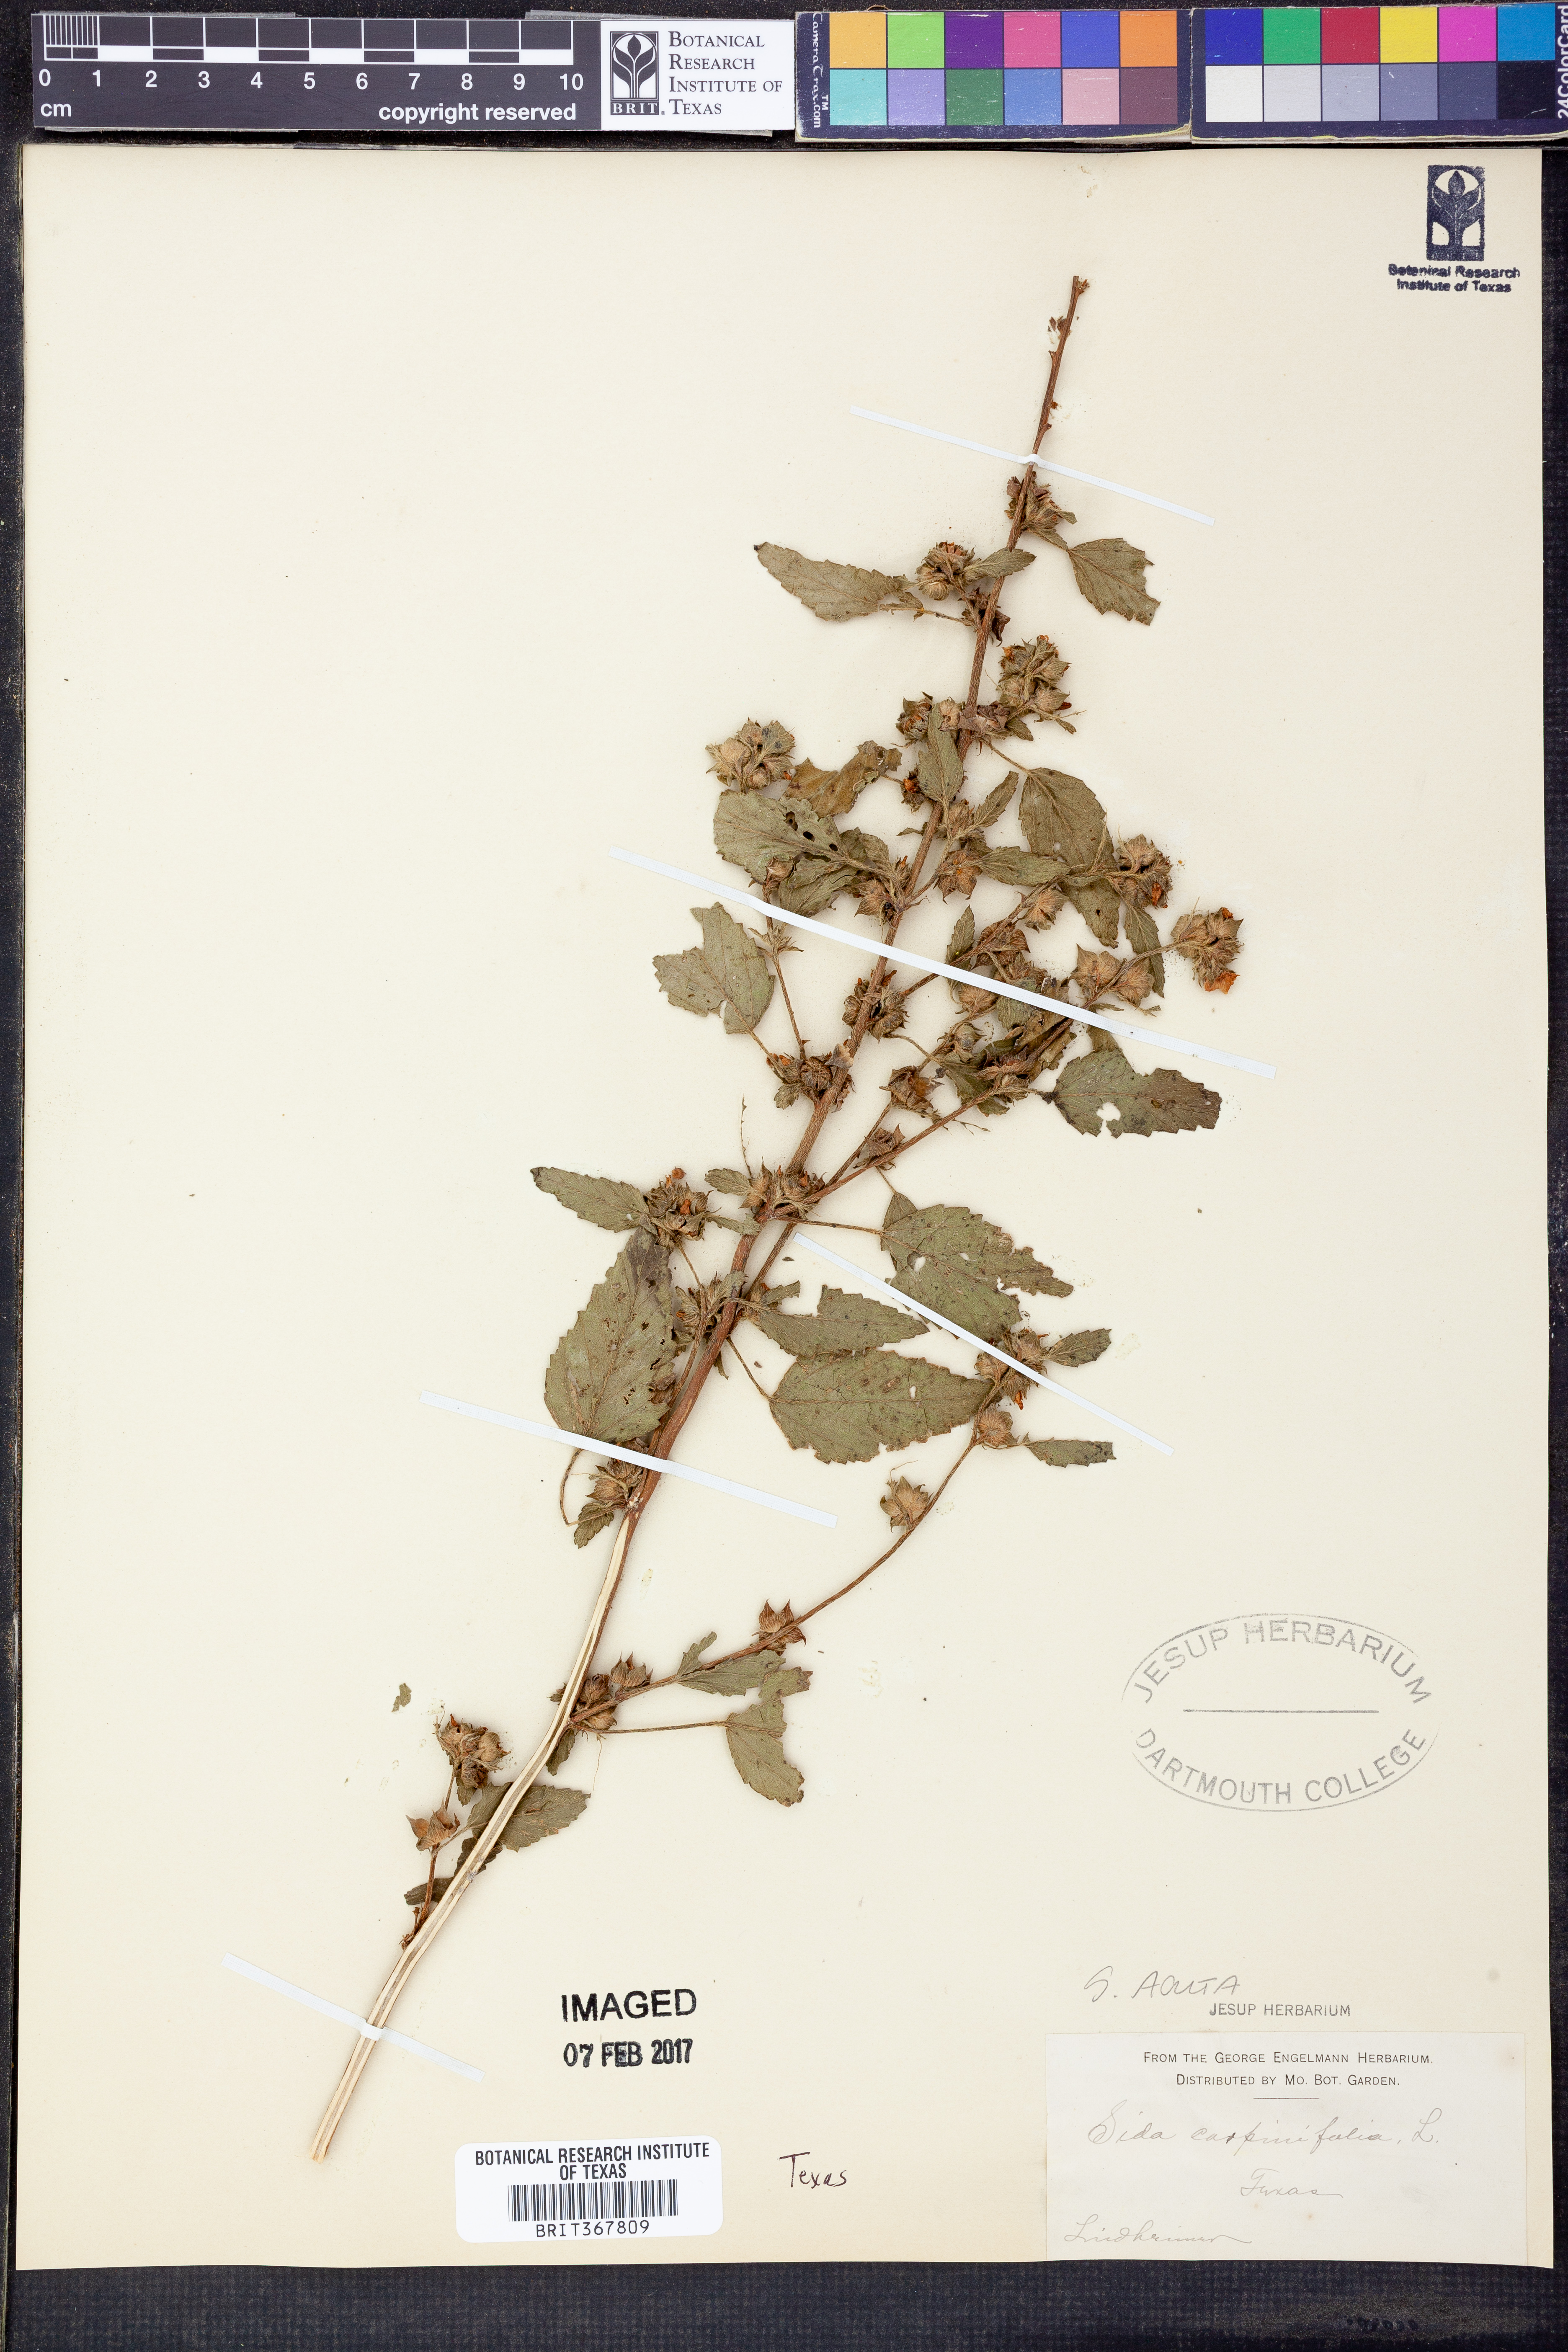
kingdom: Plantae
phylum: Tracheophyta
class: Magnoliopsida
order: Malvales
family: Malvaceae
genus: Sida
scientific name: Sida acuta
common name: Common wireweed
